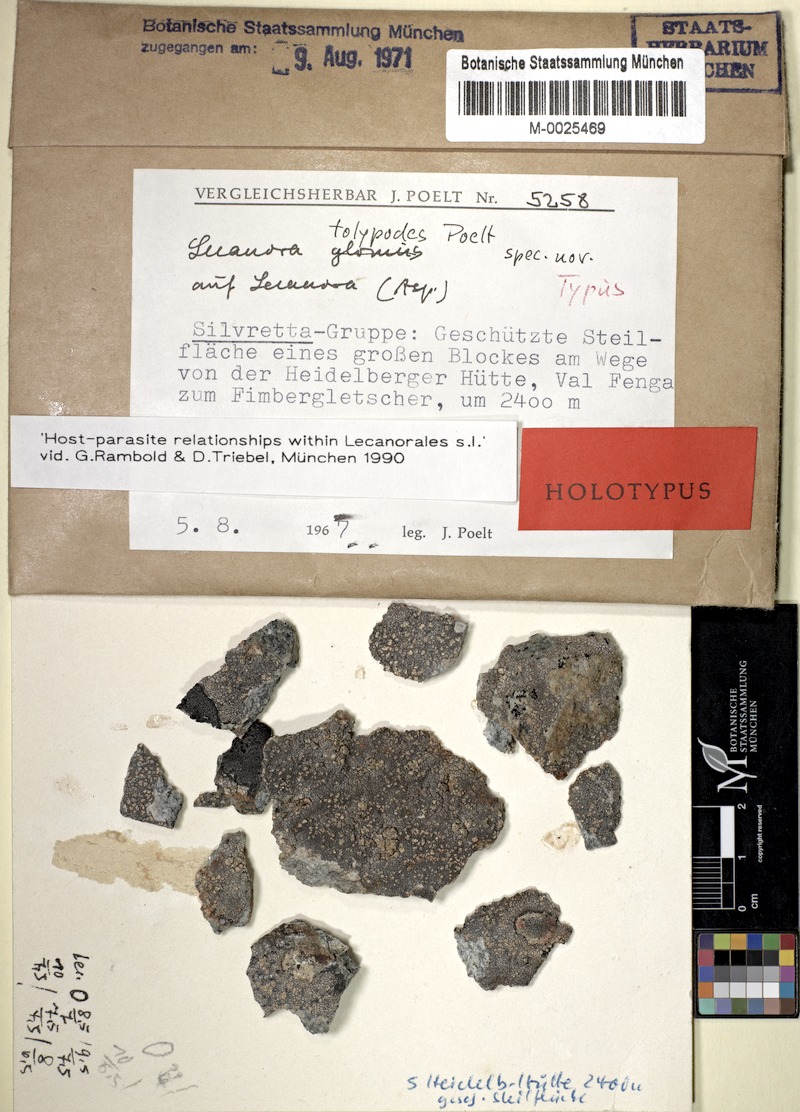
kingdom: Fungi
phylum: Ascomycota
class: Lecanoromycetes
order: Lecanorales
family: Lecanoraceae
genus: Lecanora
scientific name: Lecanora tolypodes
